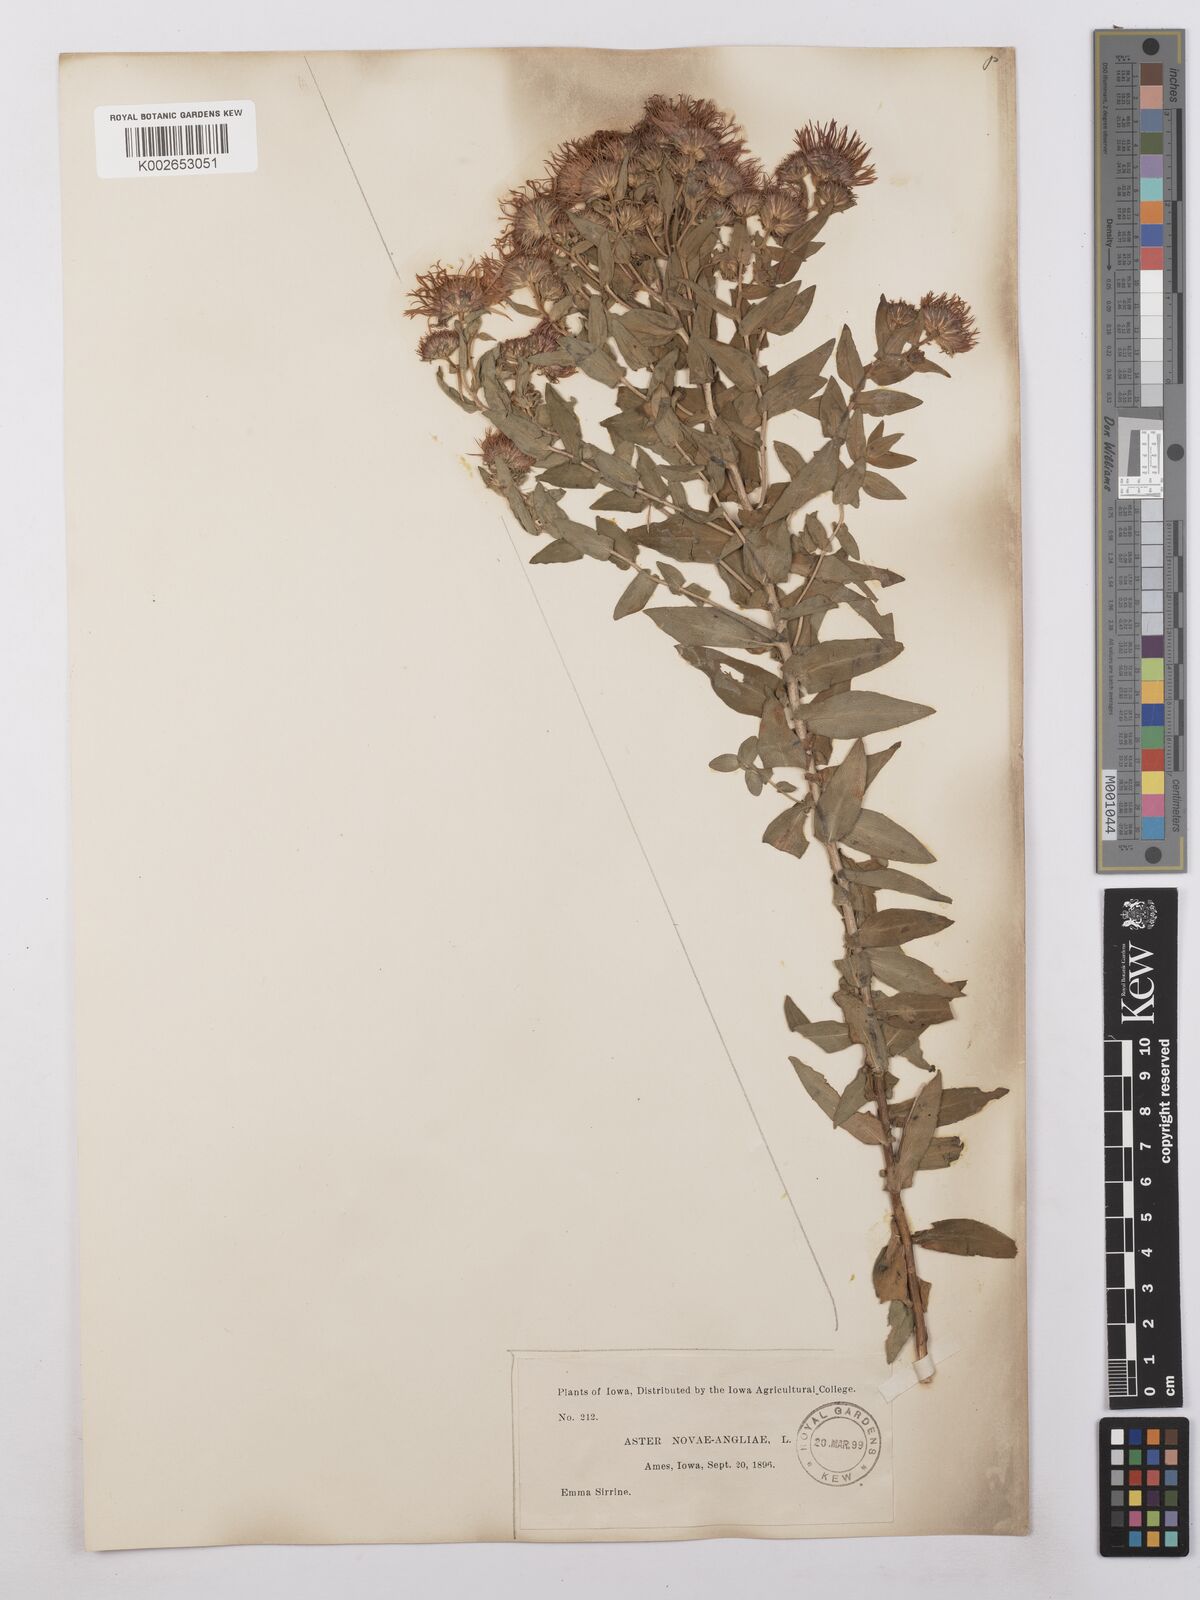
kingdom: Plantae
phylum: Tracheophyta
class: Magnoliopsida
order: Asterales
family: Asteraceae
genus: Symphyotrichum
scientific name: Symphyotrichum novae-angliae
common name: Michaelmas daisy
